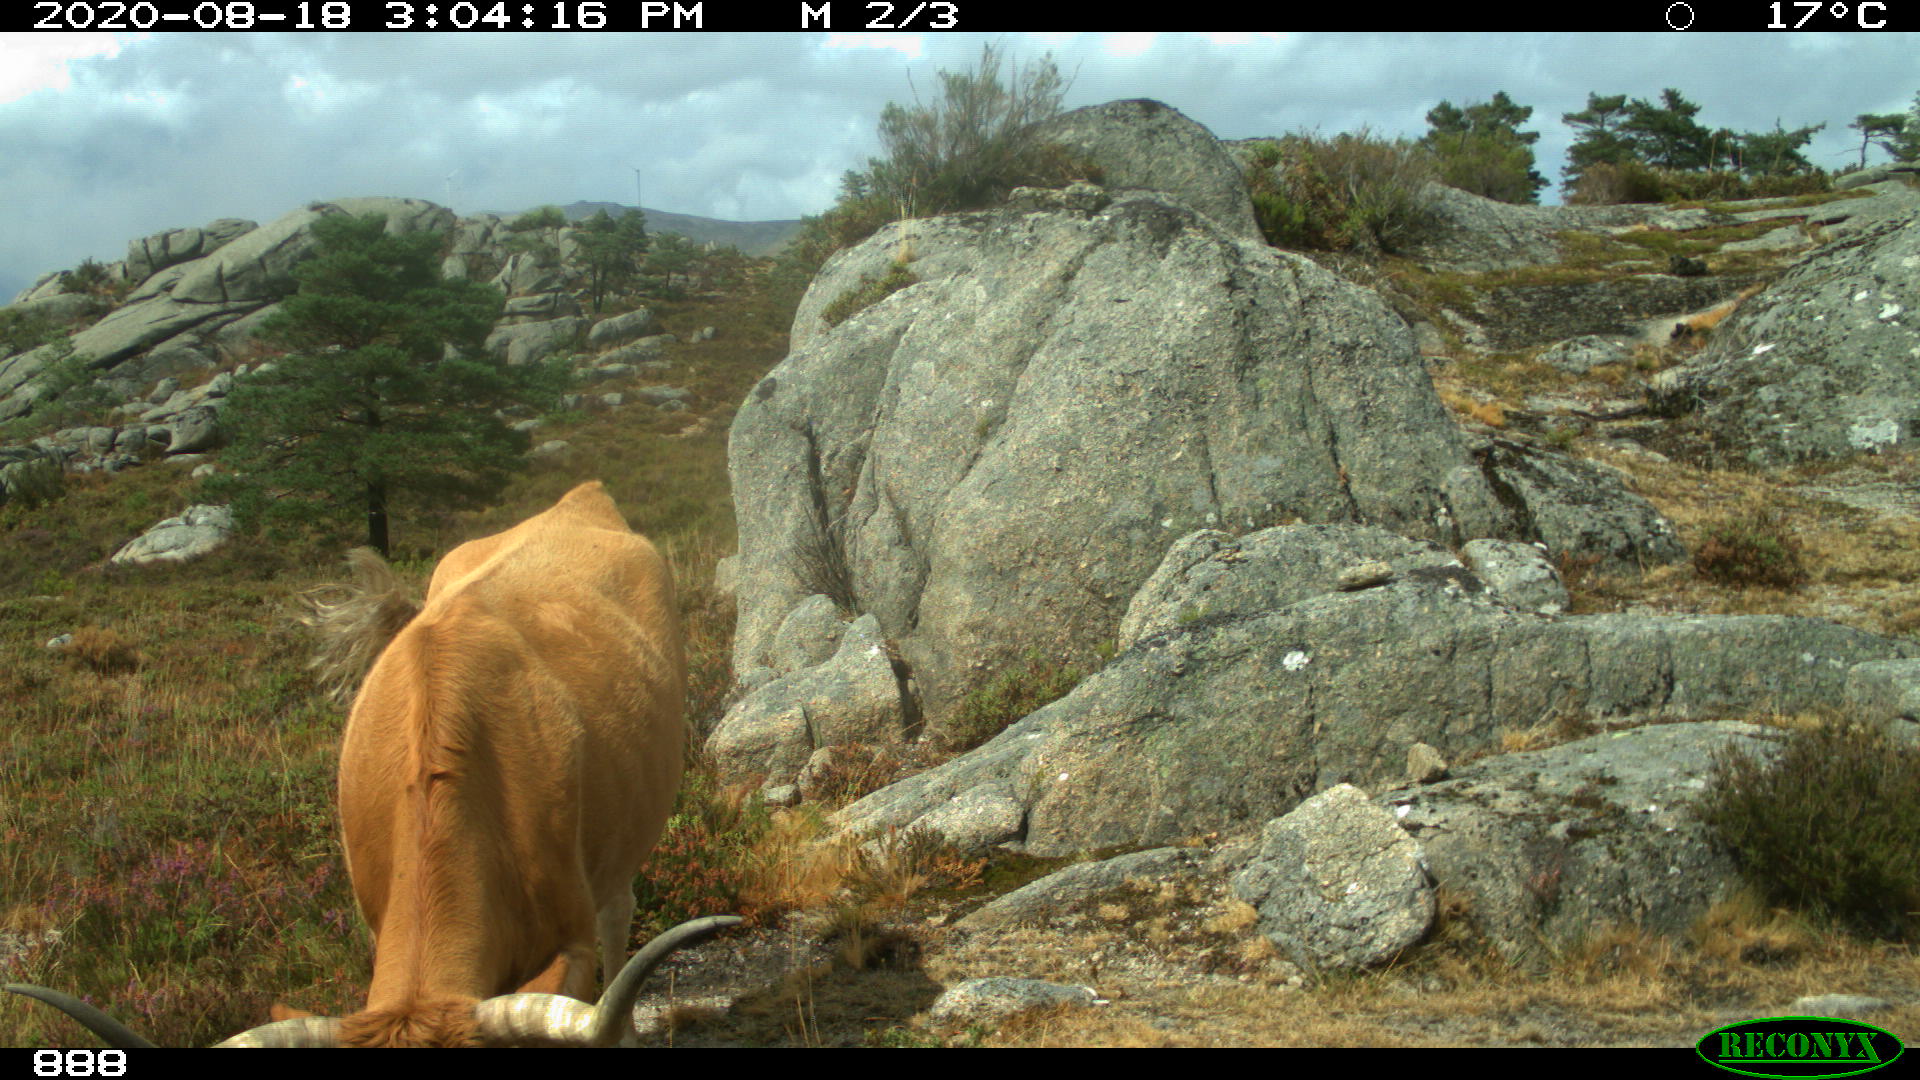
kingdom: Animalia
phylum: Chordata
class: Mammalia
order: Artiodactyla
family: Bovidae
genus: Bos
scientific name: Bos taurus
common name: Domesticated cattle
